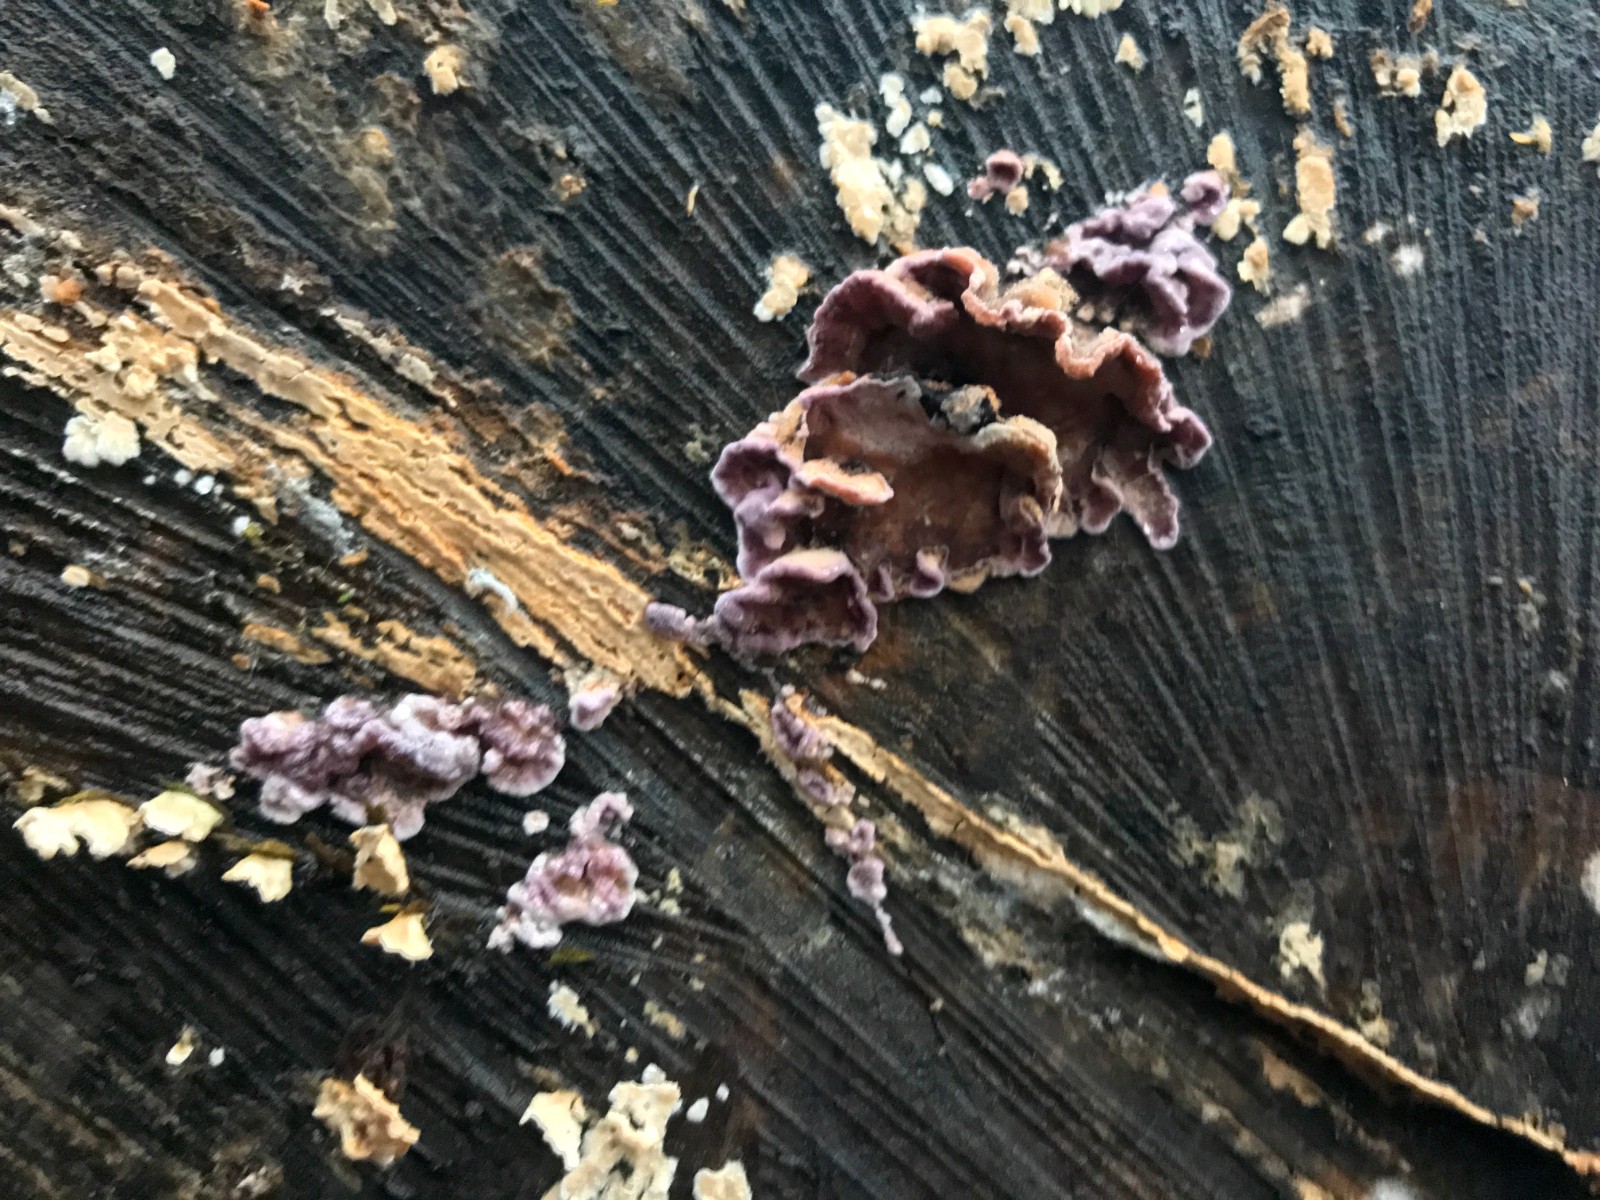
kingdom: Fungi
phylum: Basidiomycota
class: Agaricomycetes
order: Agaricales
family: Cyphellaceae
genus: Chondrostereum
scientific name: Chondrostereum purpureum
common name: purpurlædersvamp
